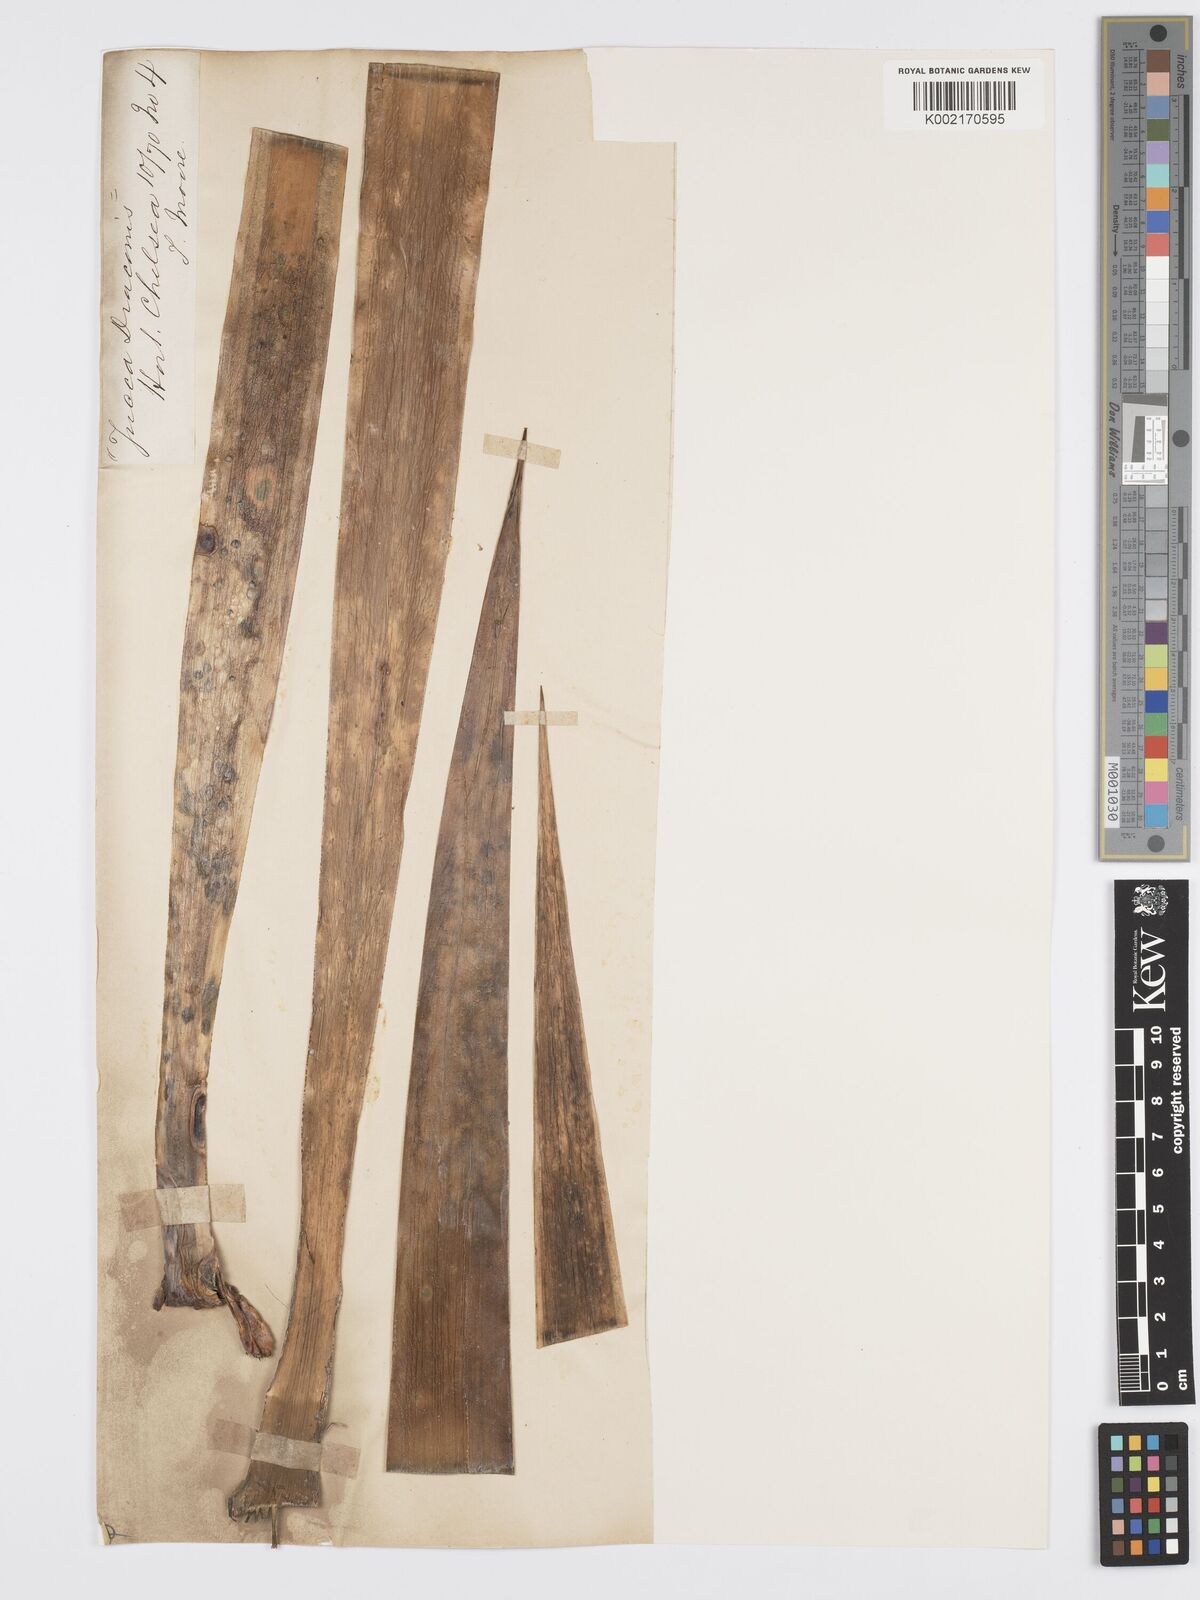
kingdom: Plantae
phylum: Tracheophyta
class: Liliopsida
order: Asparagales
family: Asparagaceae
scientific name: Asparagaceae
